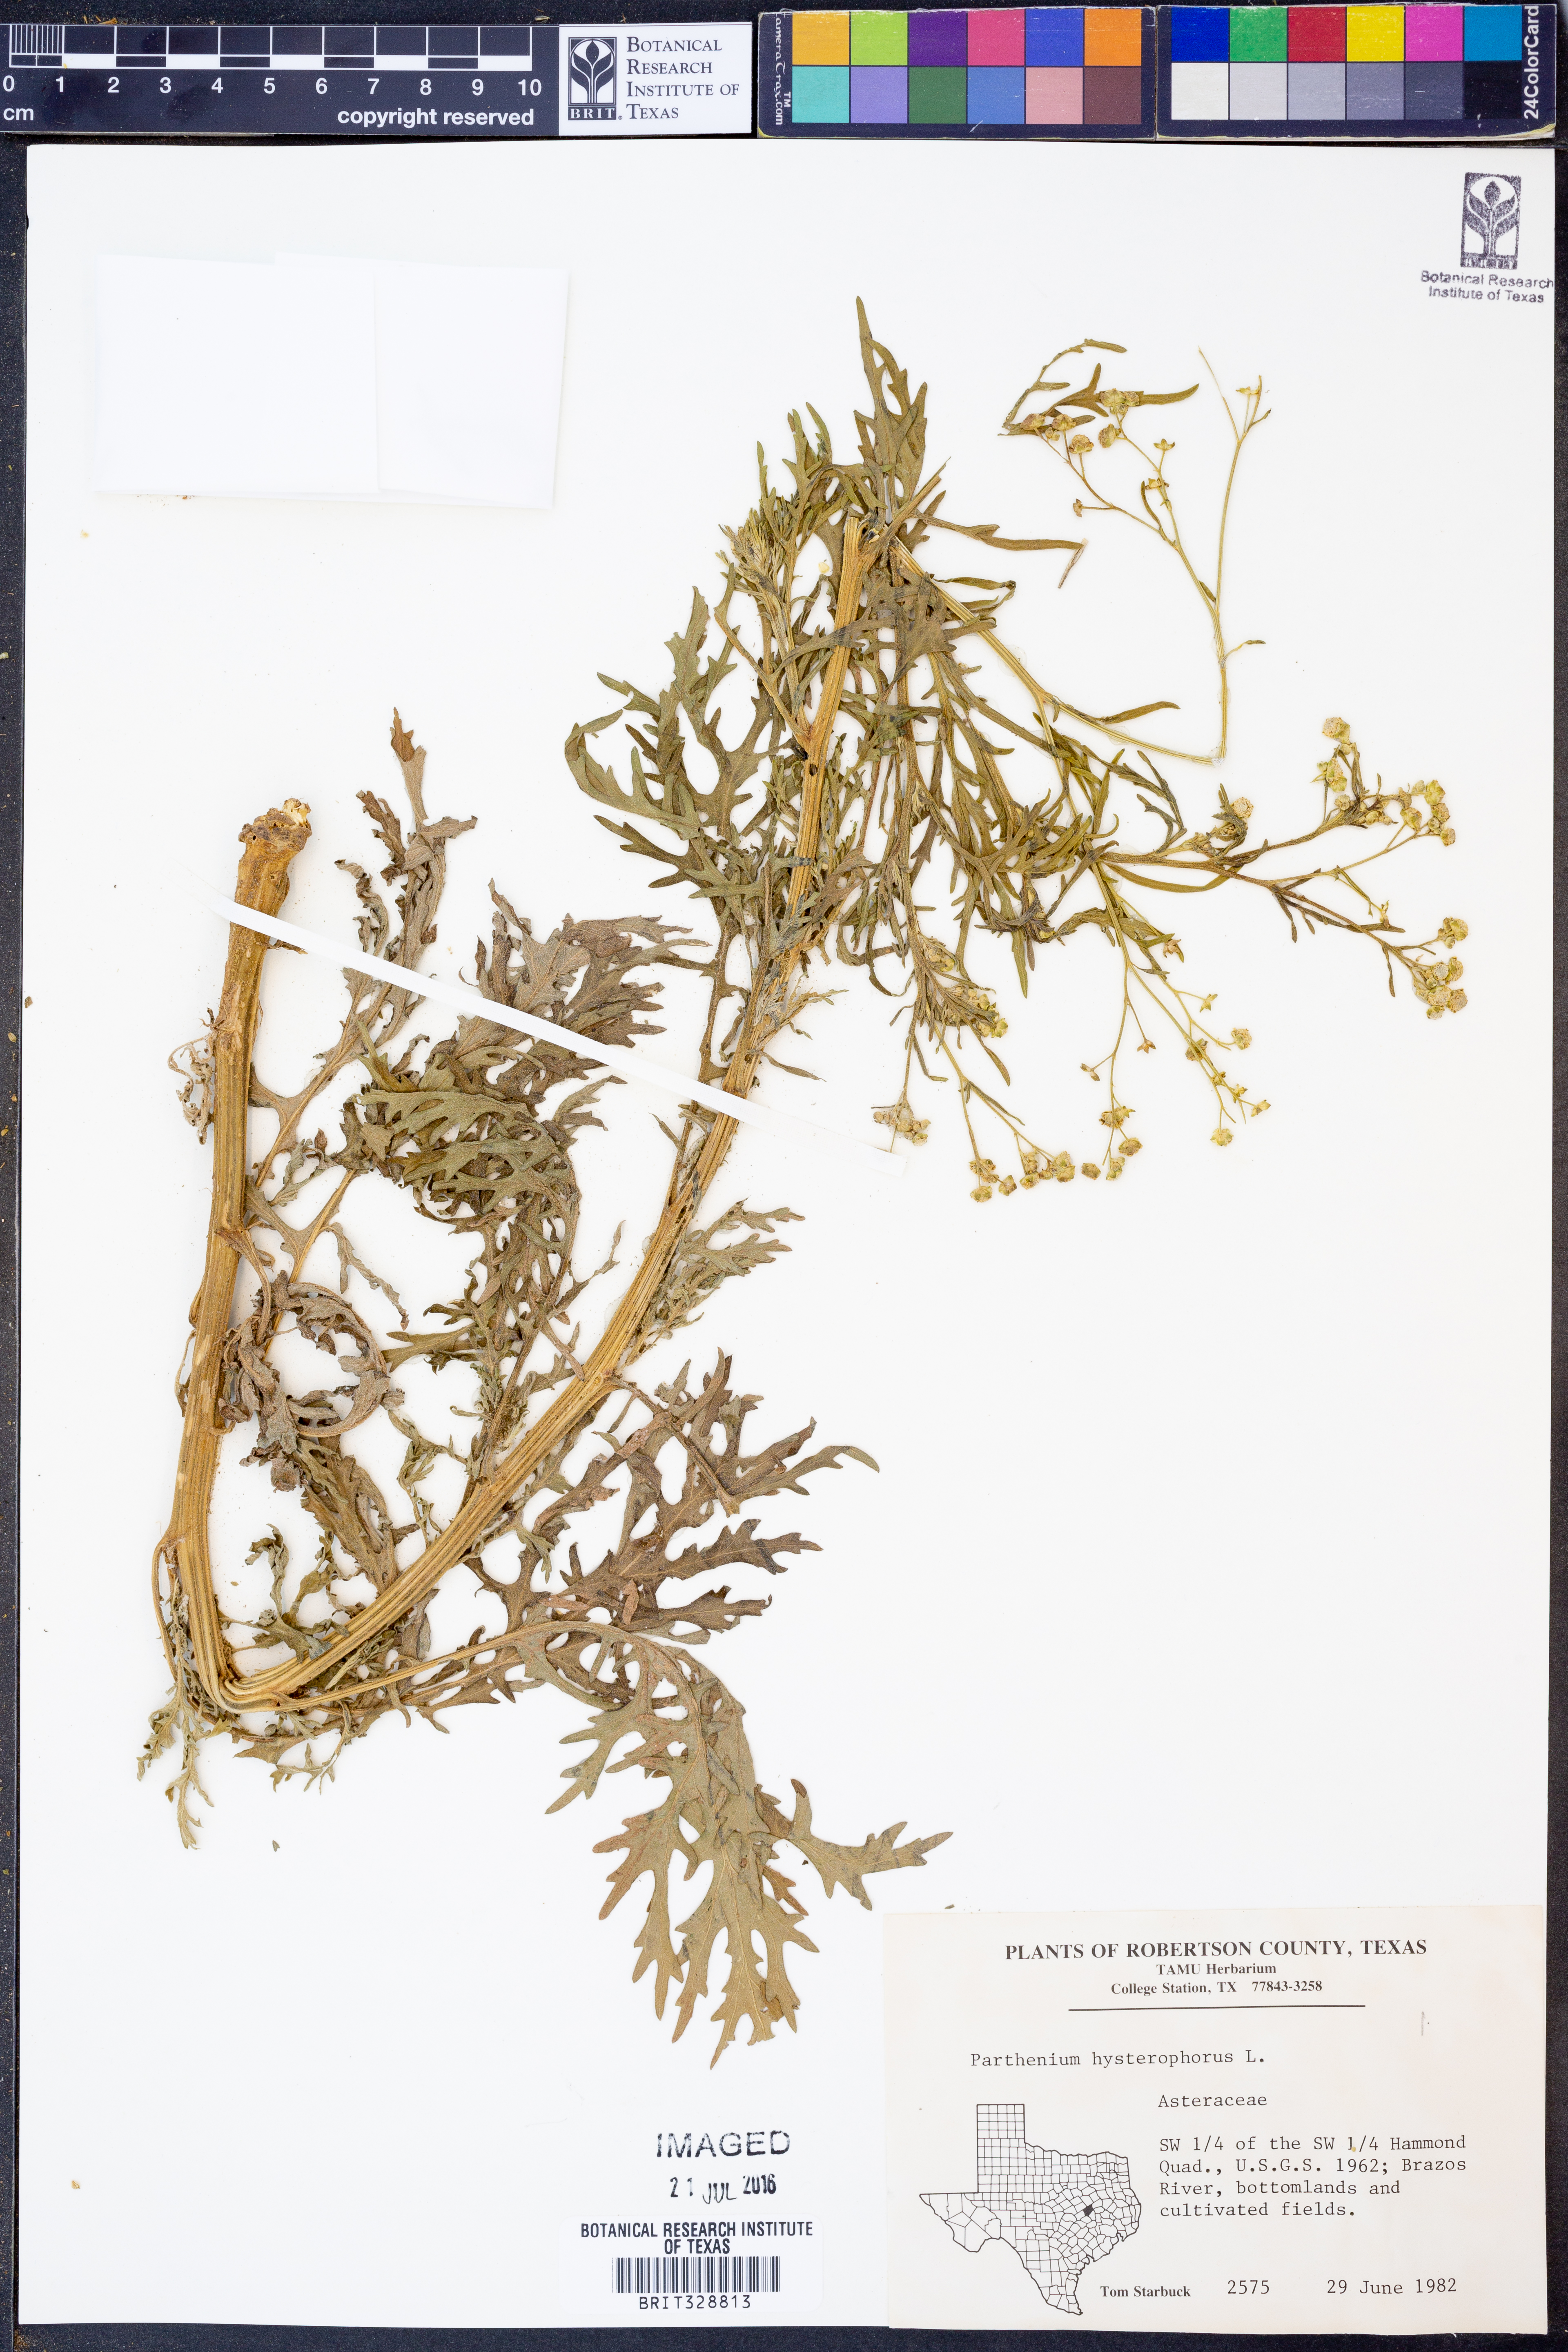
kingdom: Plantae
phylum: Tracheophyta
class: Magnoliopsida
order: Asterales
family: Asteraceae
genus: Parthenium
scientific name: Parthenium hysterophorus
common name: Santa maria feverfew
